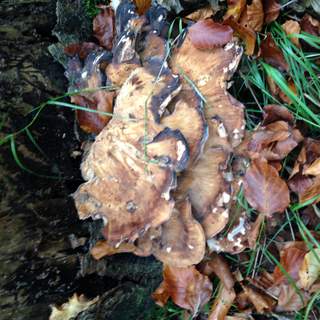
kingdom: Fungi
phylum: Basidiomycota
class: Agaricomycetes
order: Polyporales
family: Meripilaceae
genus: Meripilus
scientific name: Meripilus giganteus
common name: kæmpeporesvamp
